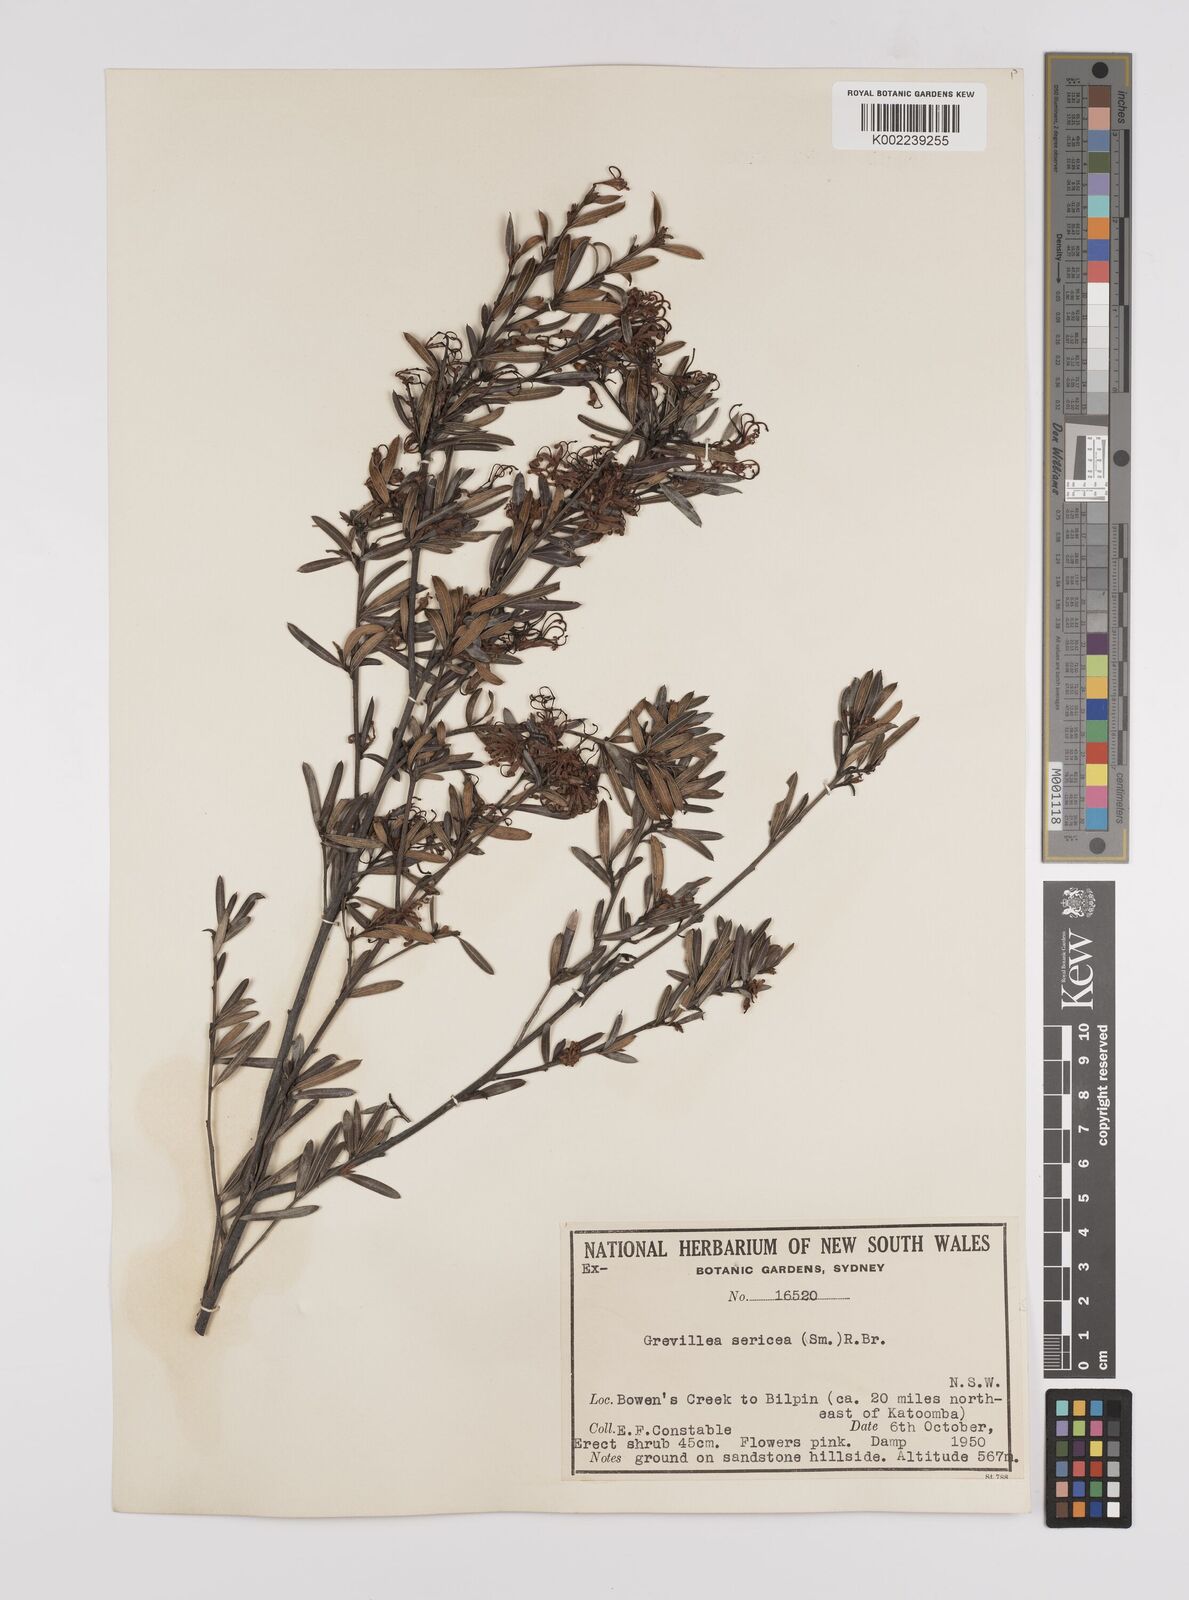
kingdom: Plantae
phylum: Tracheophyta
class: Magnoliopsida
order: Proteales
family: Proteaceae
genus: Grevillea
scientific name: Grevillea sericea
